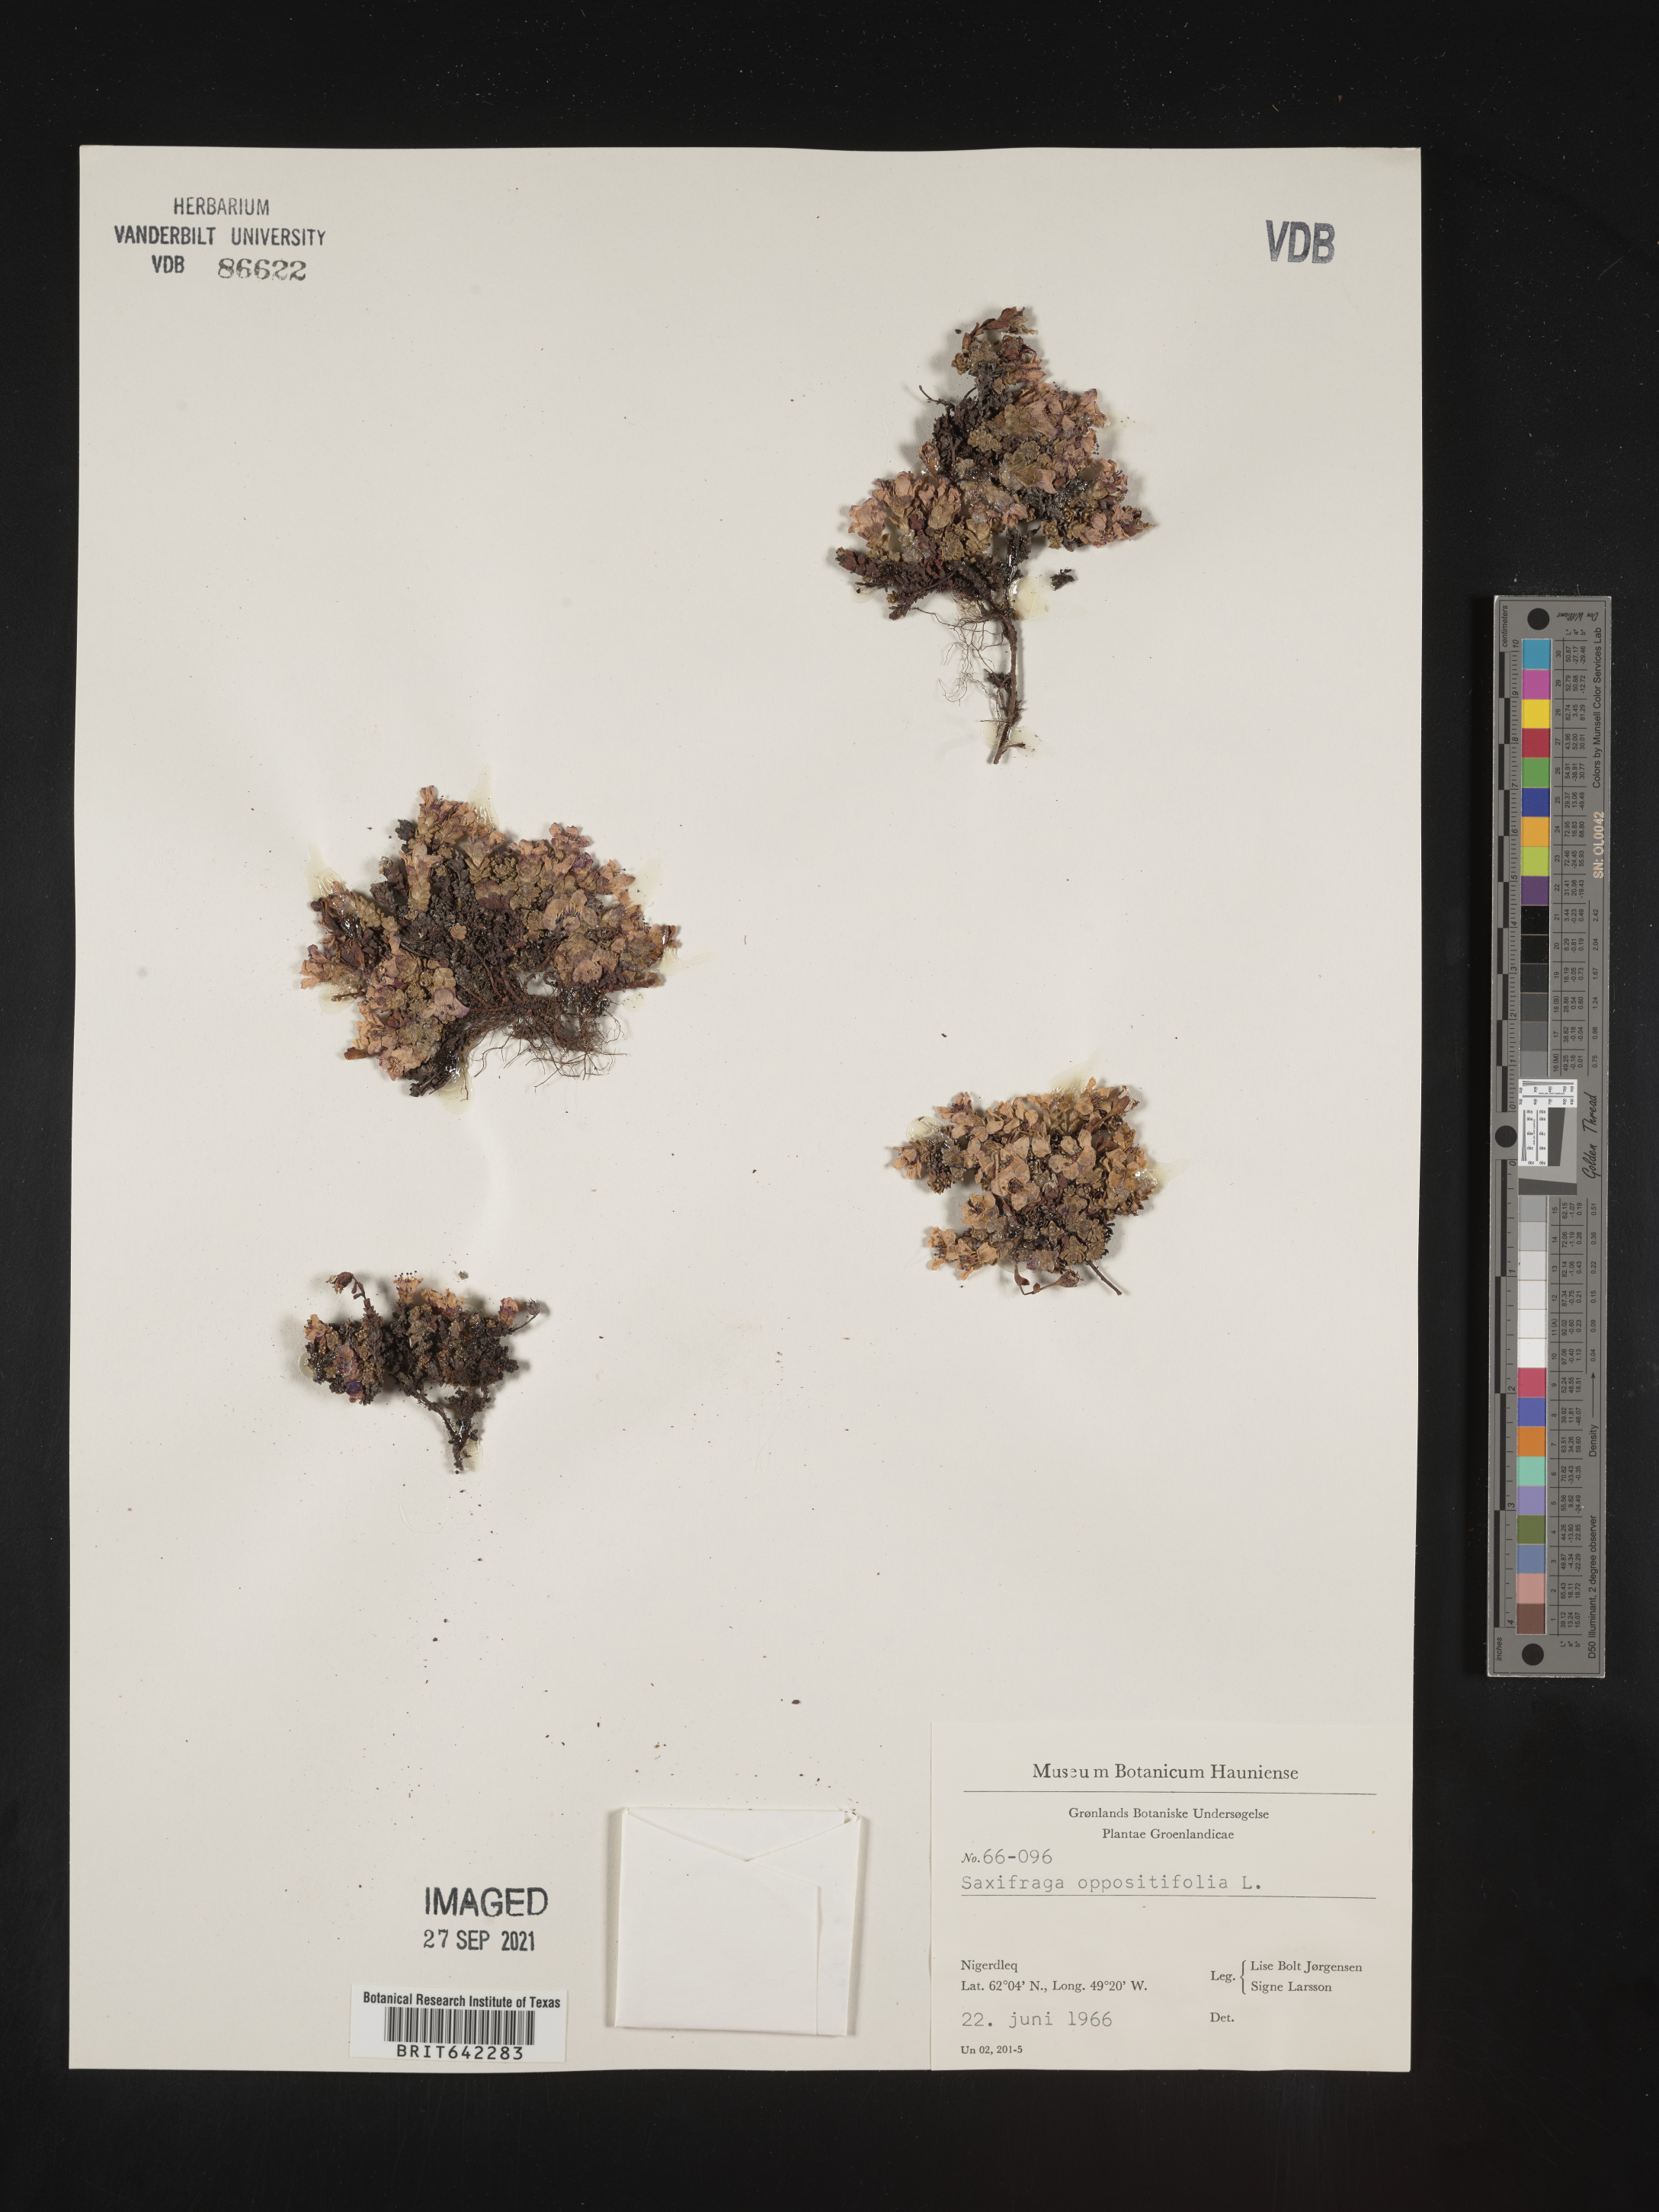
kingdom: Plantae
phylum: Tracheophyta
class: Magnoliopsida
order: Saxifragales
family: Saxifragaceae
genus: Saxifraga
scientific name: Saxifraga
